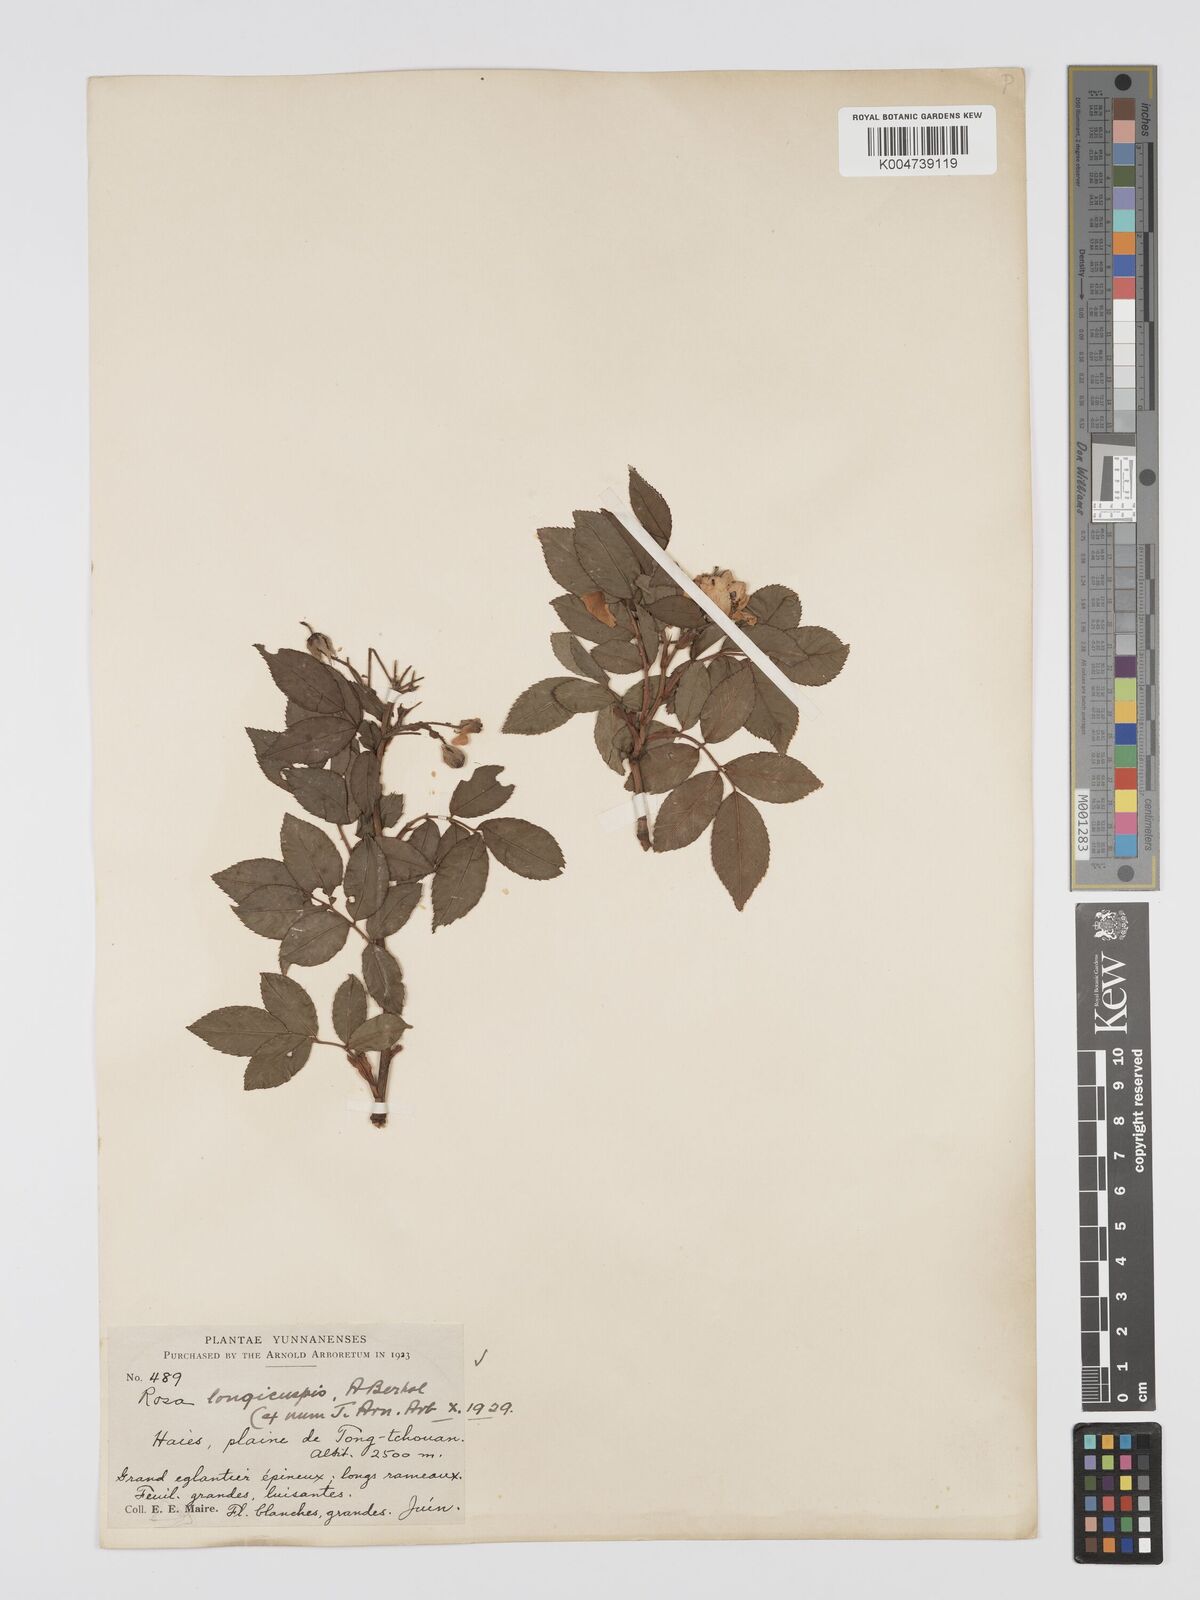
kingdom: Plantae
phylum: Tracheophyta
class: Magnoliopsida
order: Rosales
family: Rosaceae
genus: Rosa
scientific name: Rosa longicuspis
